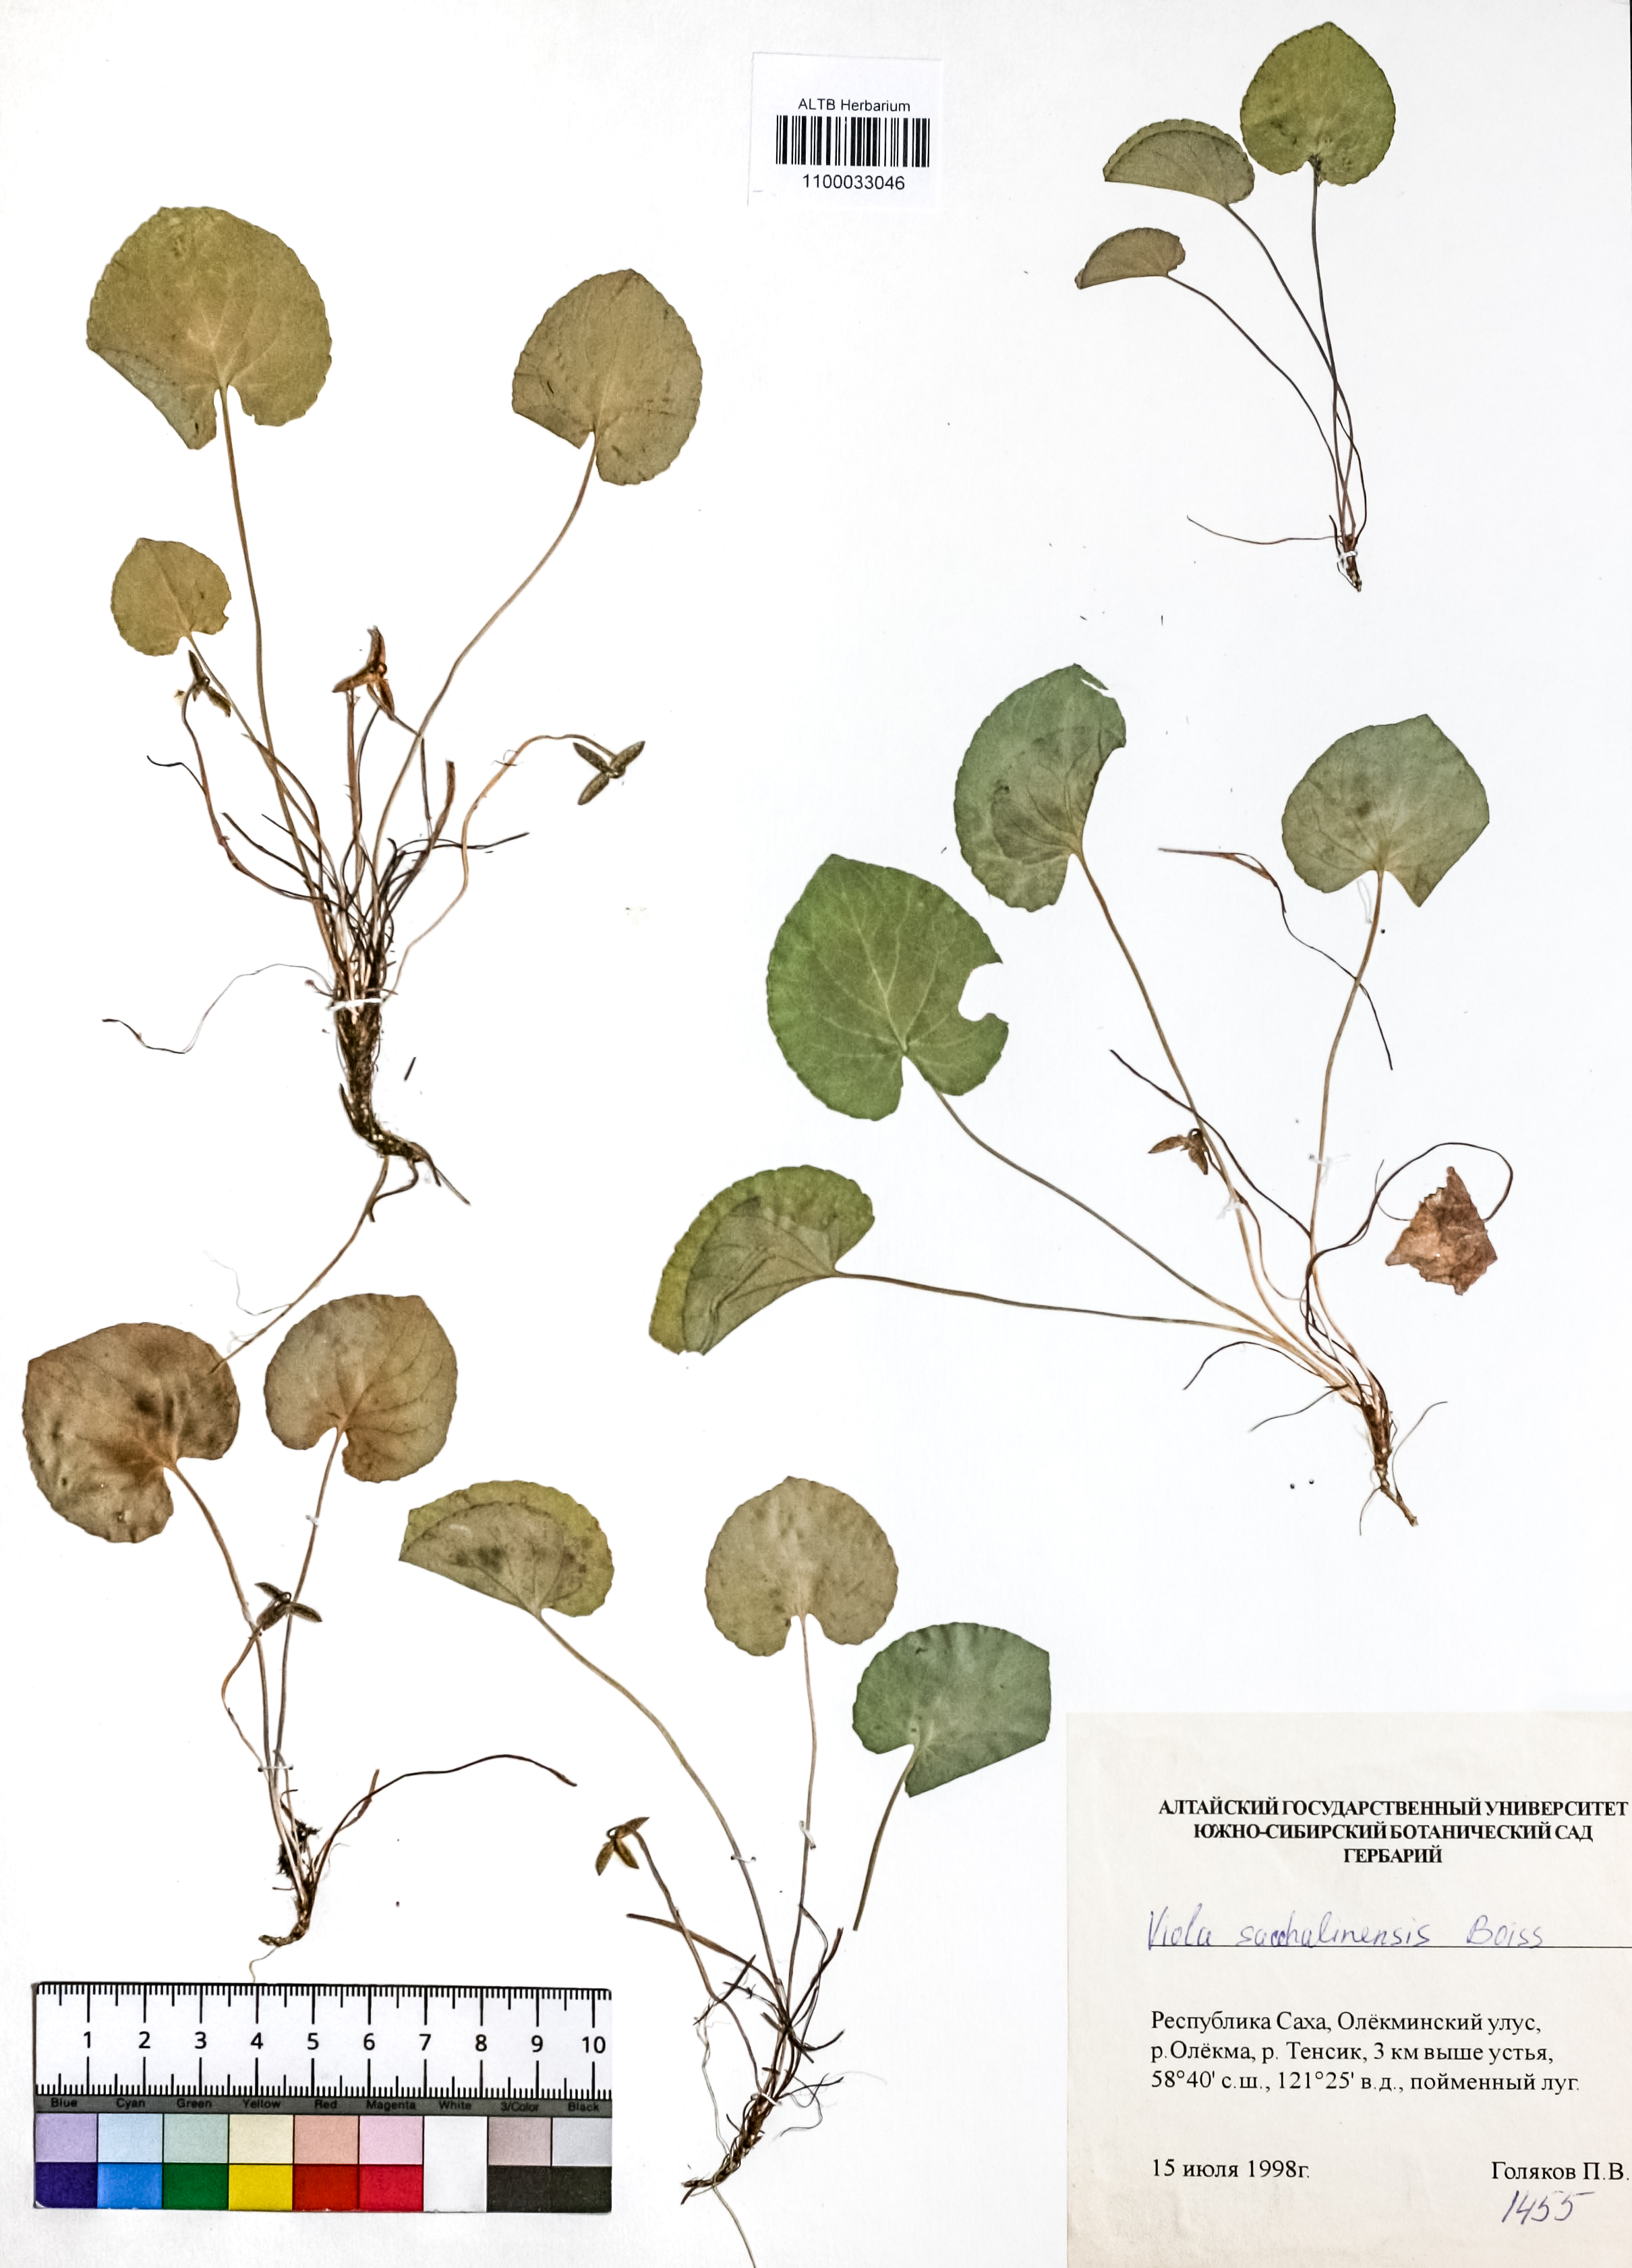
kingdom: Plantae
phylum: Tracheophyta
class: Magnoliopsida
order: Malpighiales
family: Violaceae
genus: Viola
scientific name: Viola sacchalinensis
